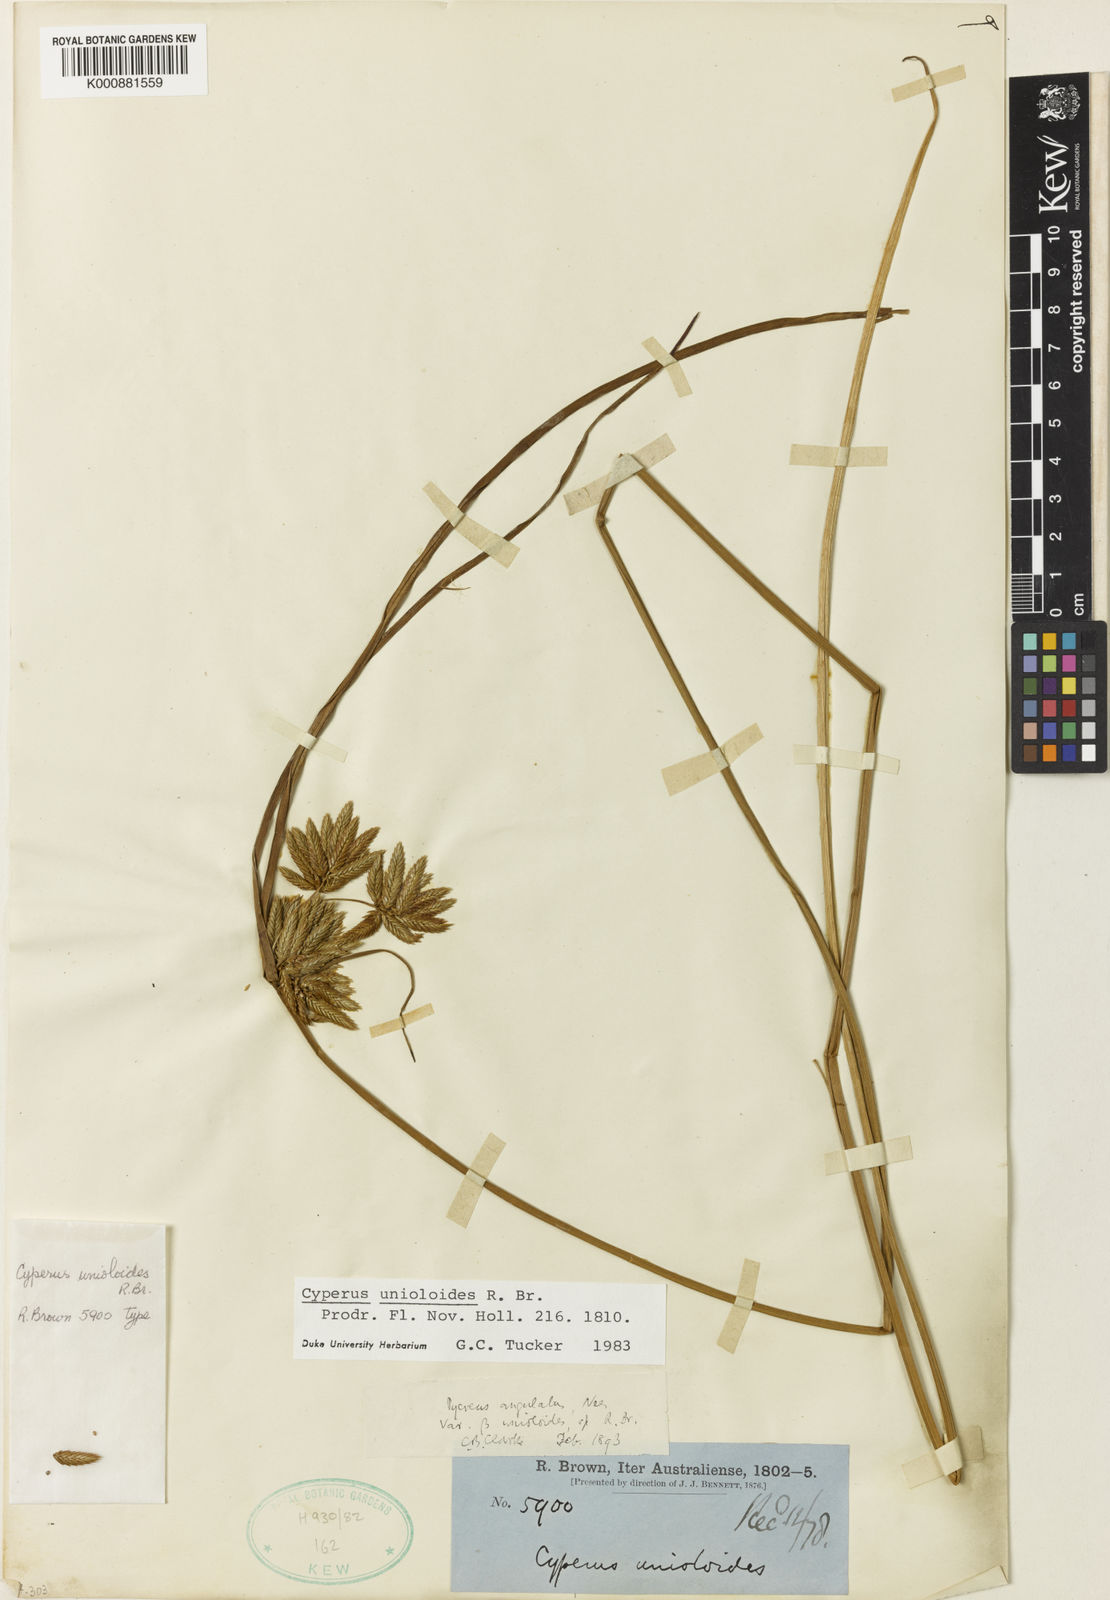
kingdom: Plantae
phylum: Tracheophyta
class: Liliopsida
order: Poales
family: Cyperaceae
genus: Cyperus
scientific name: Cyperus unioloides
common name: Uniola flatsedge
